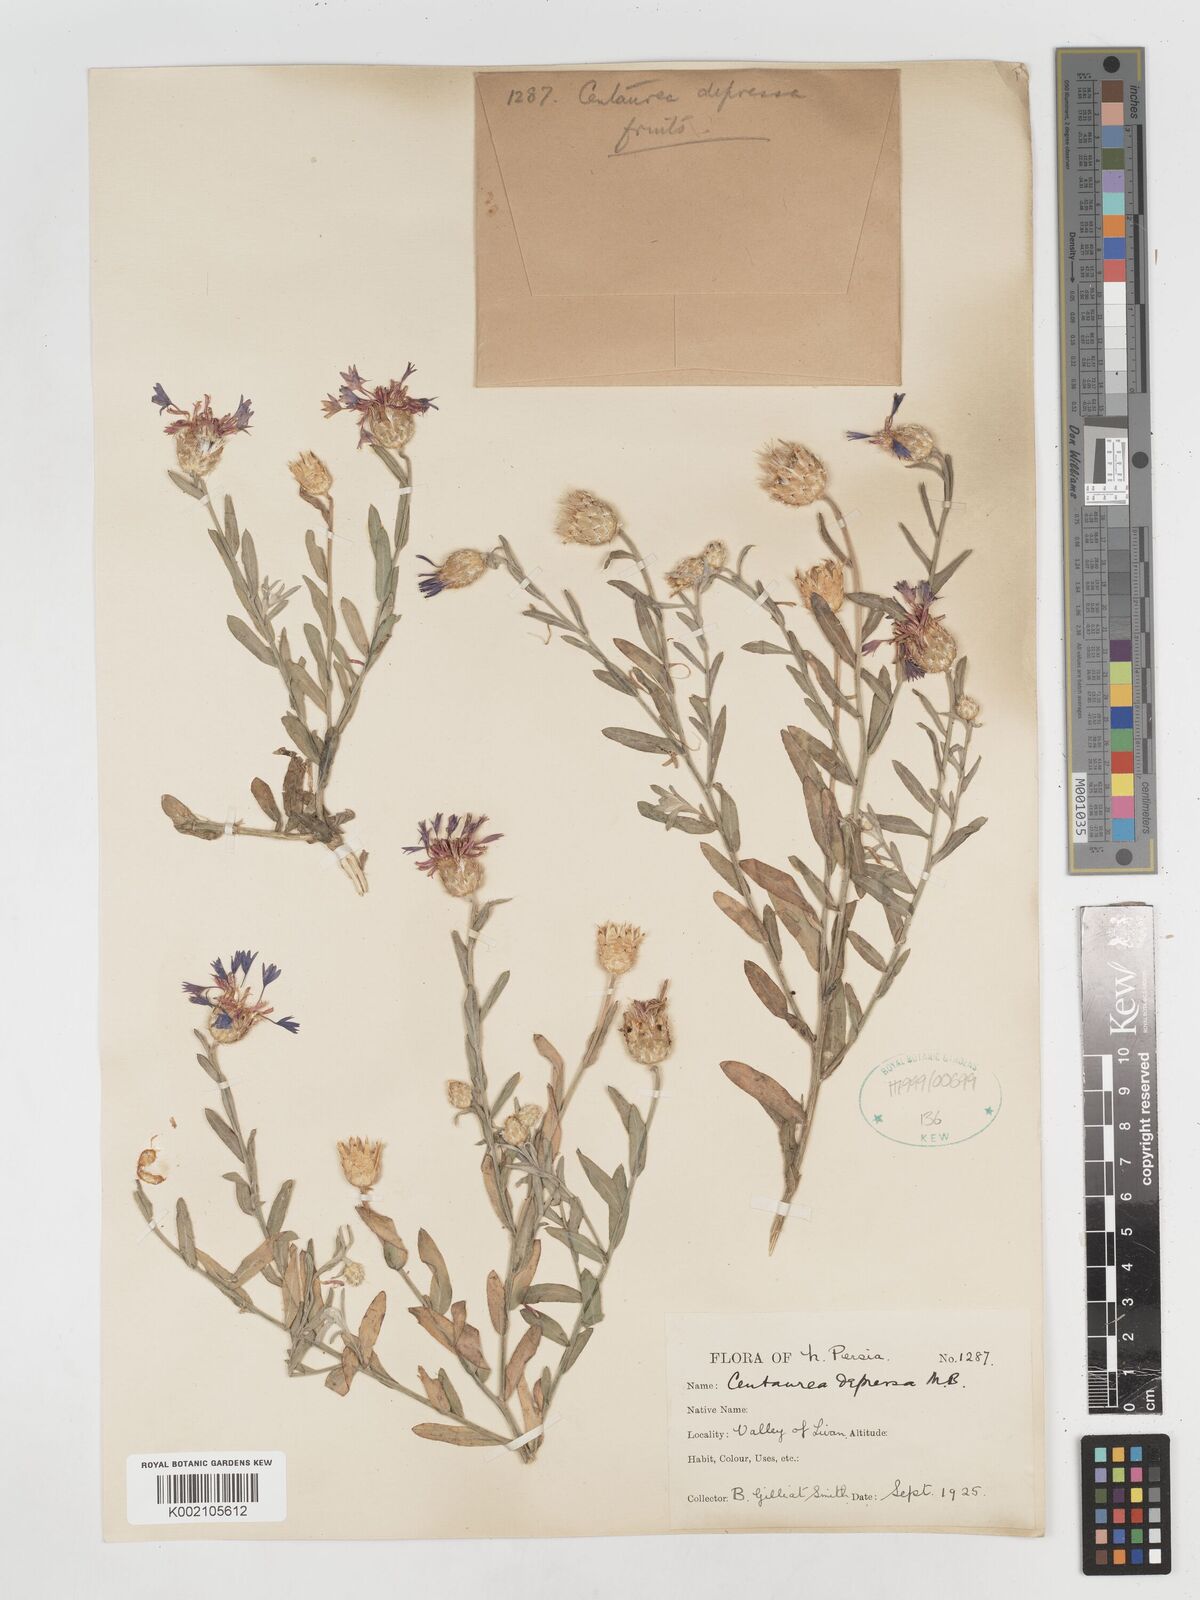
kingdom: Plantae
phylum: Tracheophyta
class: Magnoliopsida
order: Asterales
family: Asteraceae
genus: Centaurea
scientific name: Centaurea depressa
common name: Iranian knapweed
